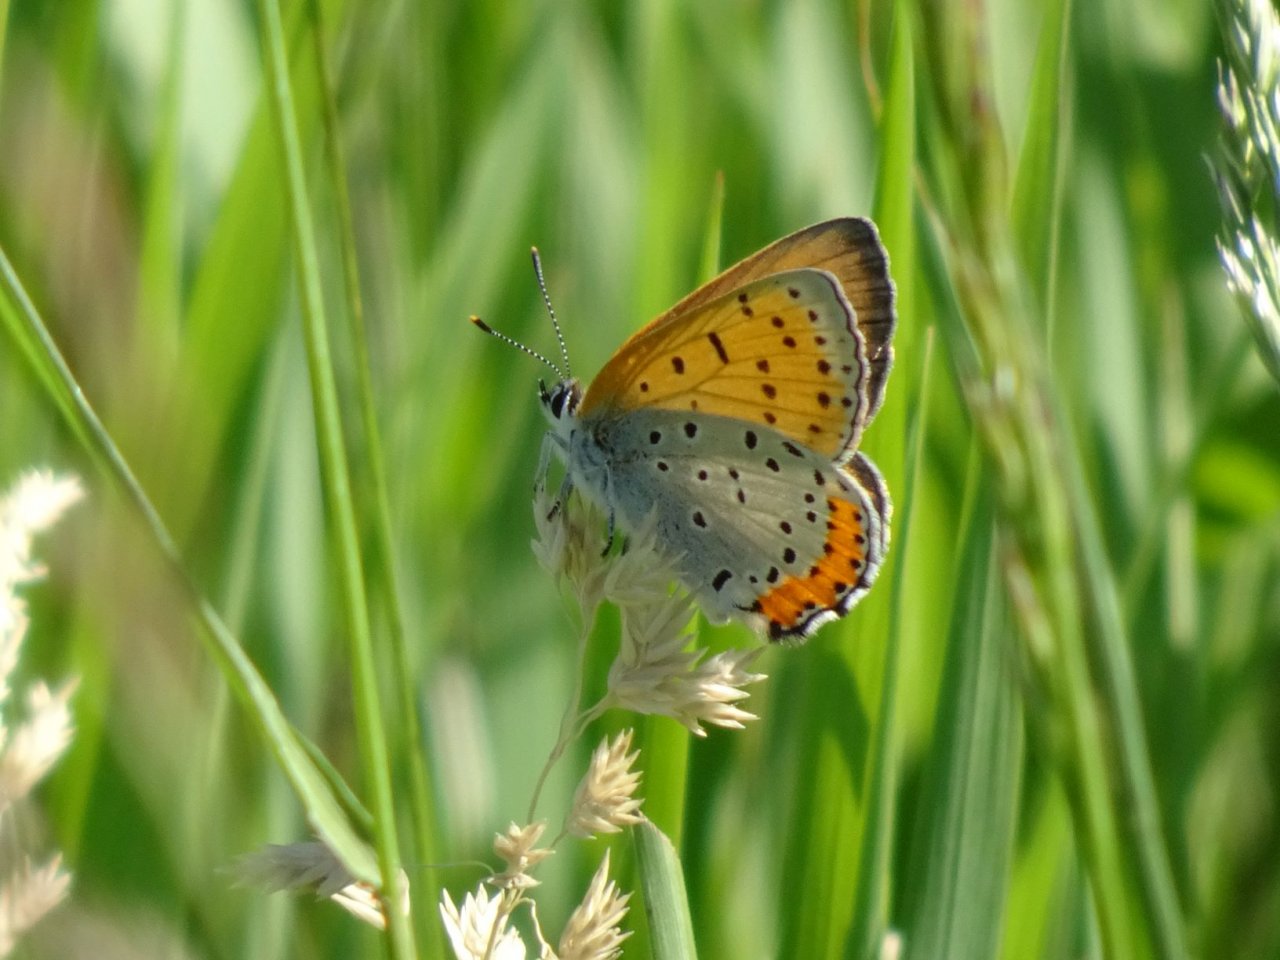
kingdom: Animalia
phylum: Arthropoda
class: Insecta
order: Lepidoptera
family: Sesiidae
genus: Sesia
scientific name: Sesia Lycaena hyllus
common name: Bronze Copper
